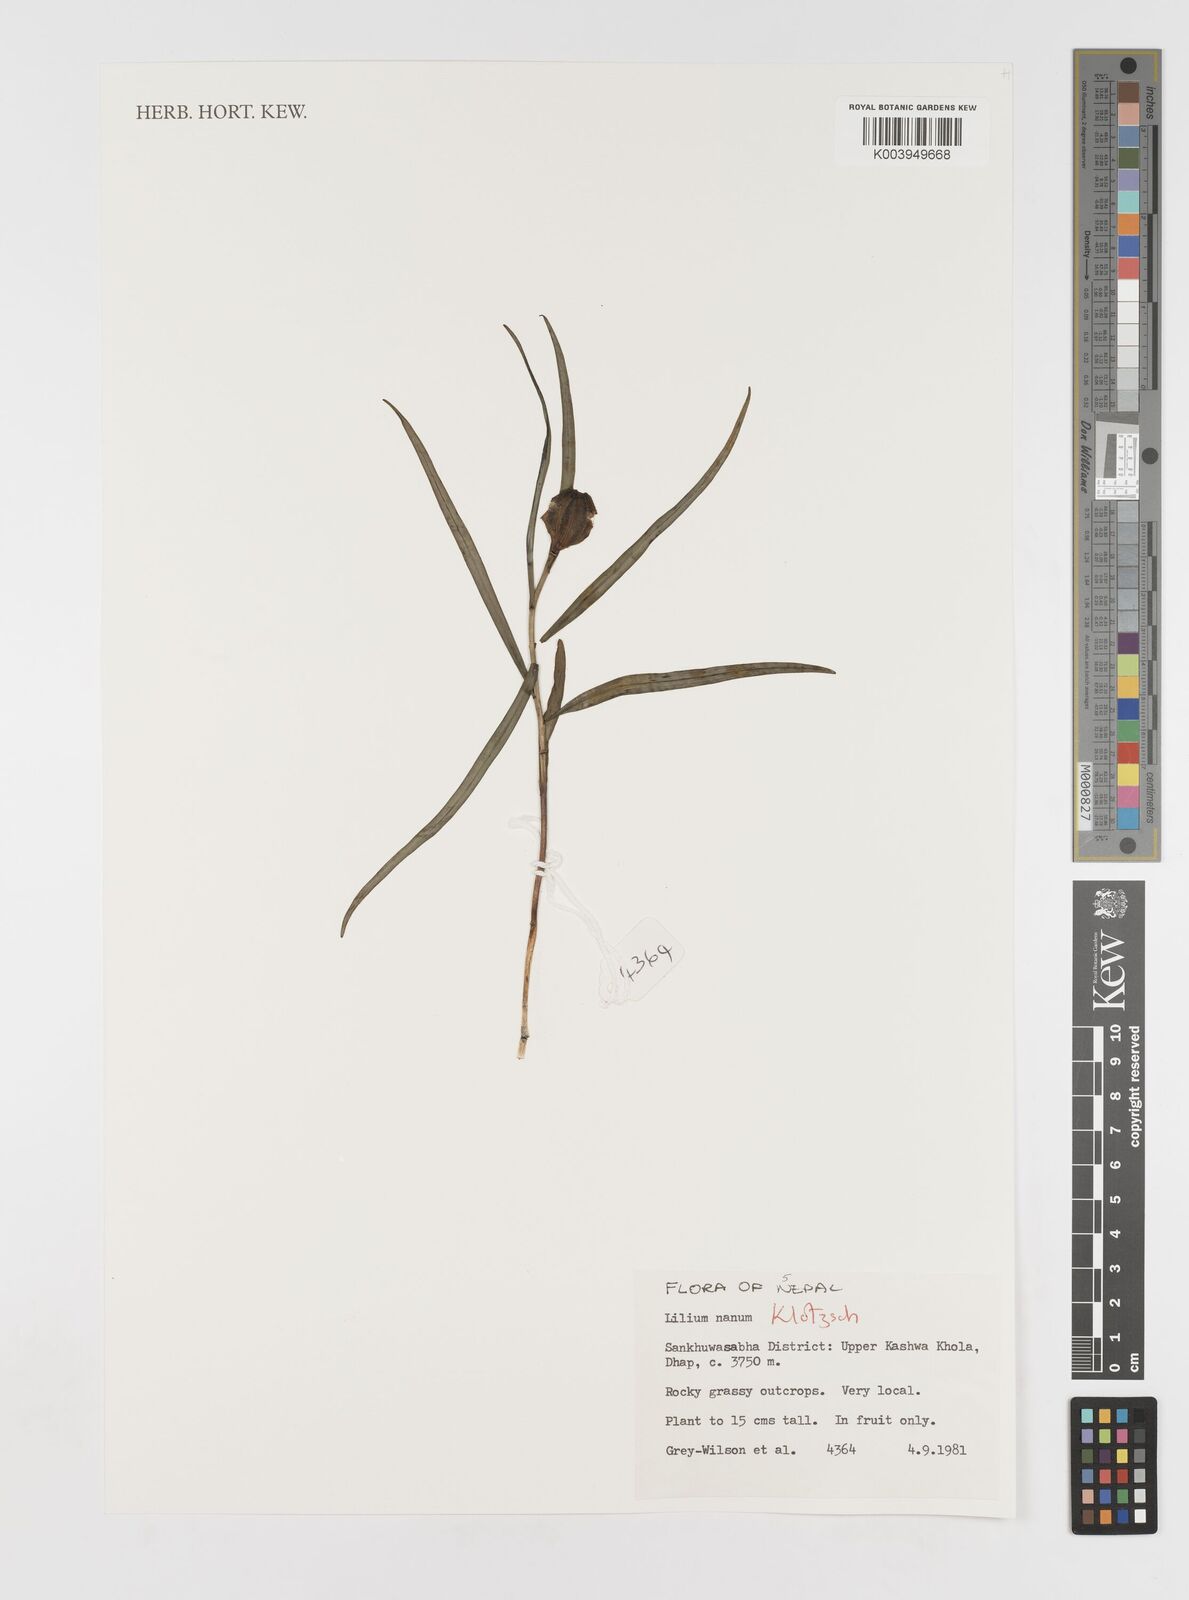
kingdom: Plantae
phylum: Tracheophyta
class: Liliopsida
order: Liliales
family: Liliaceae
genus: Lilium
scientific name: Lilium nanum
